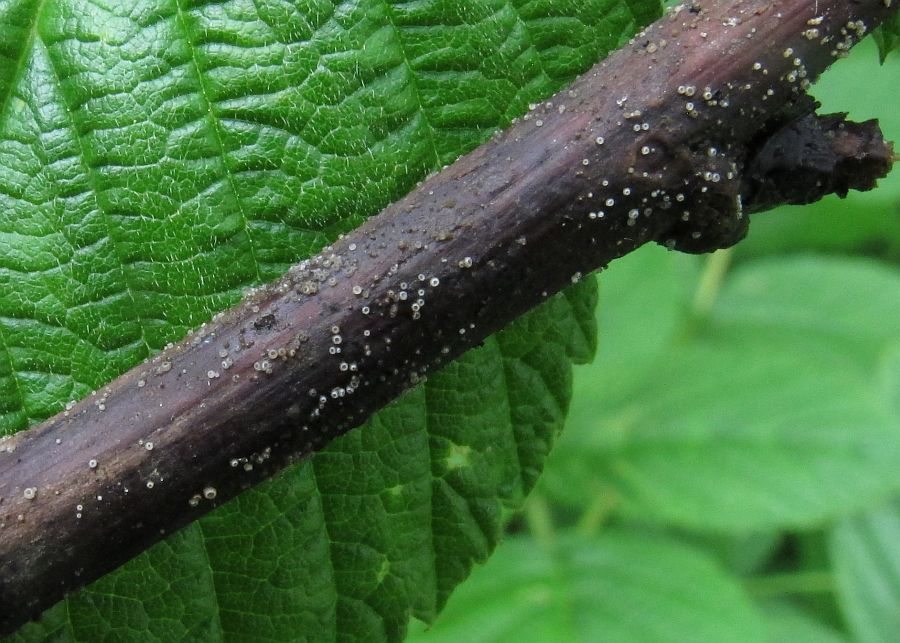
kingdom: Fungi
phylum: Ascomycota
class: Leotiomycetes
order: Helotiales
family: Hyaloscyphaceae
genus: Hyalopeziza
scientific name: Hyalopeziza millepunctata
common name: almindelig kugleskive
